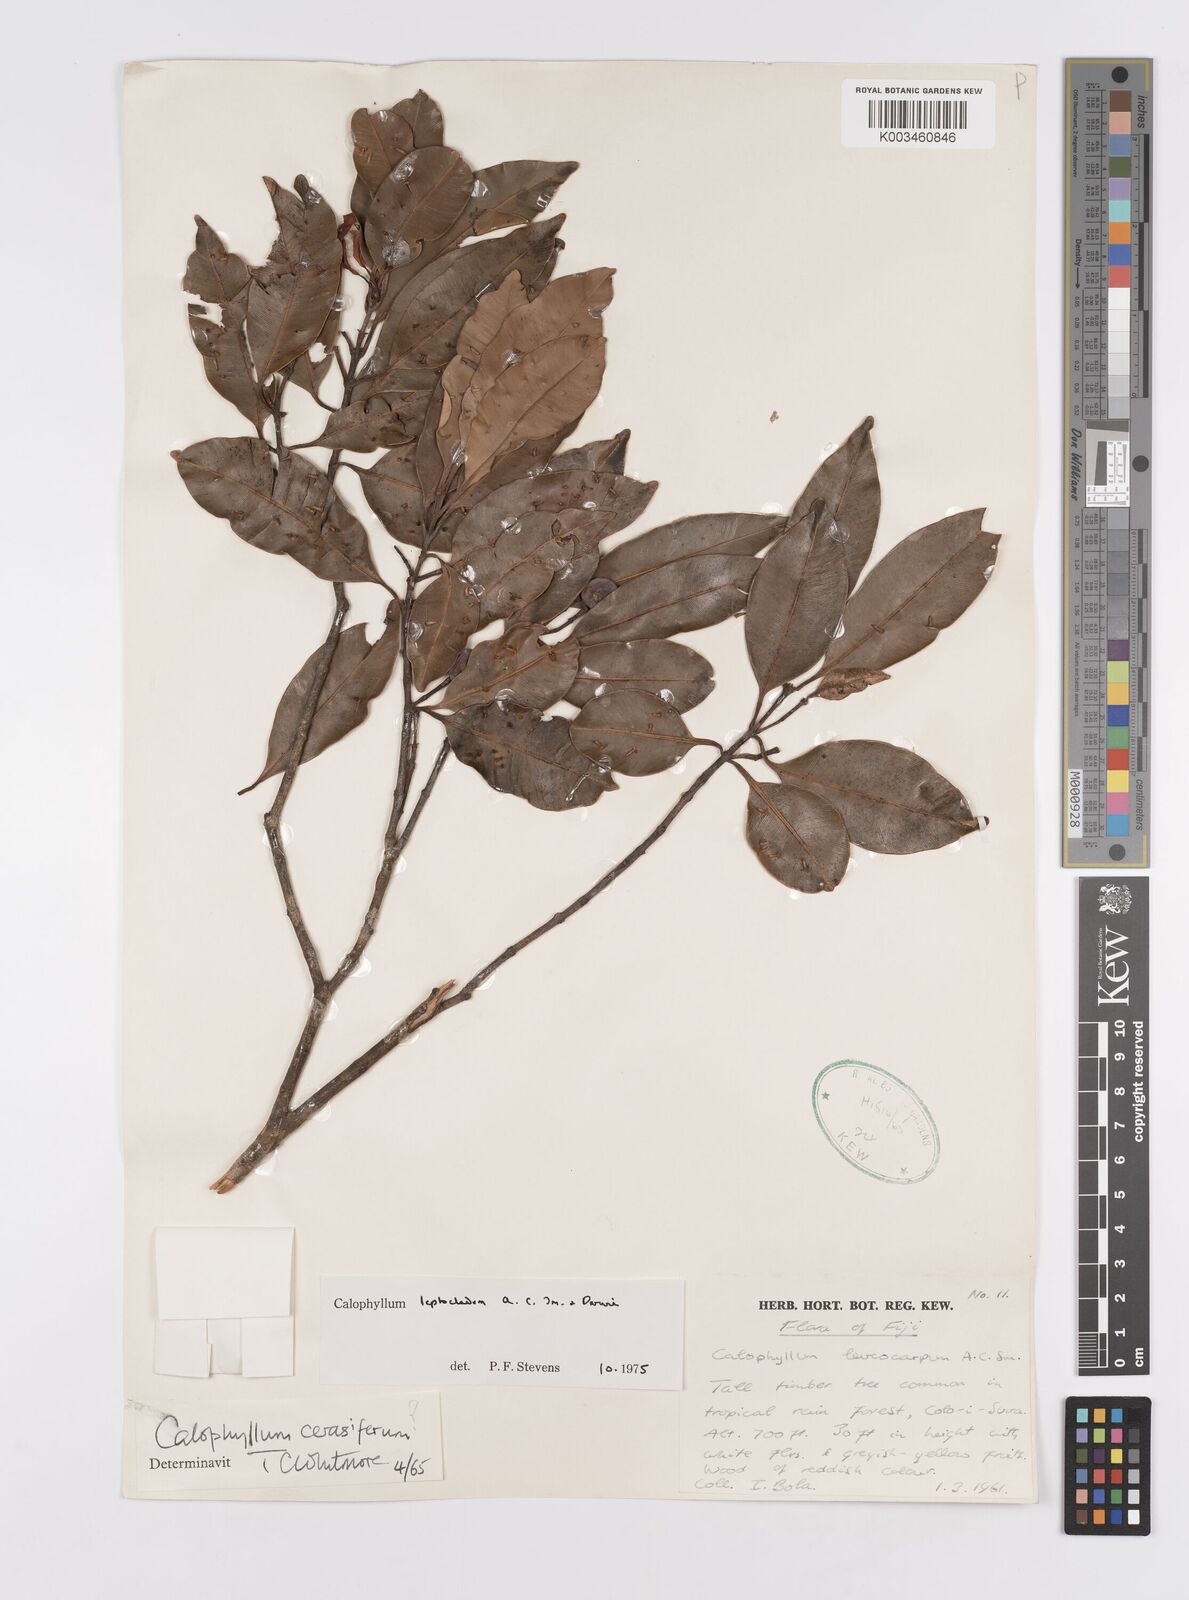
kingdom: Plantae
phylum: Tracheophyta
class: Magnoliopsida
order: Malpighiales
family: Calophyllaceae
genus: Calophyllum
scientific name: Calophyllum leptocladum
